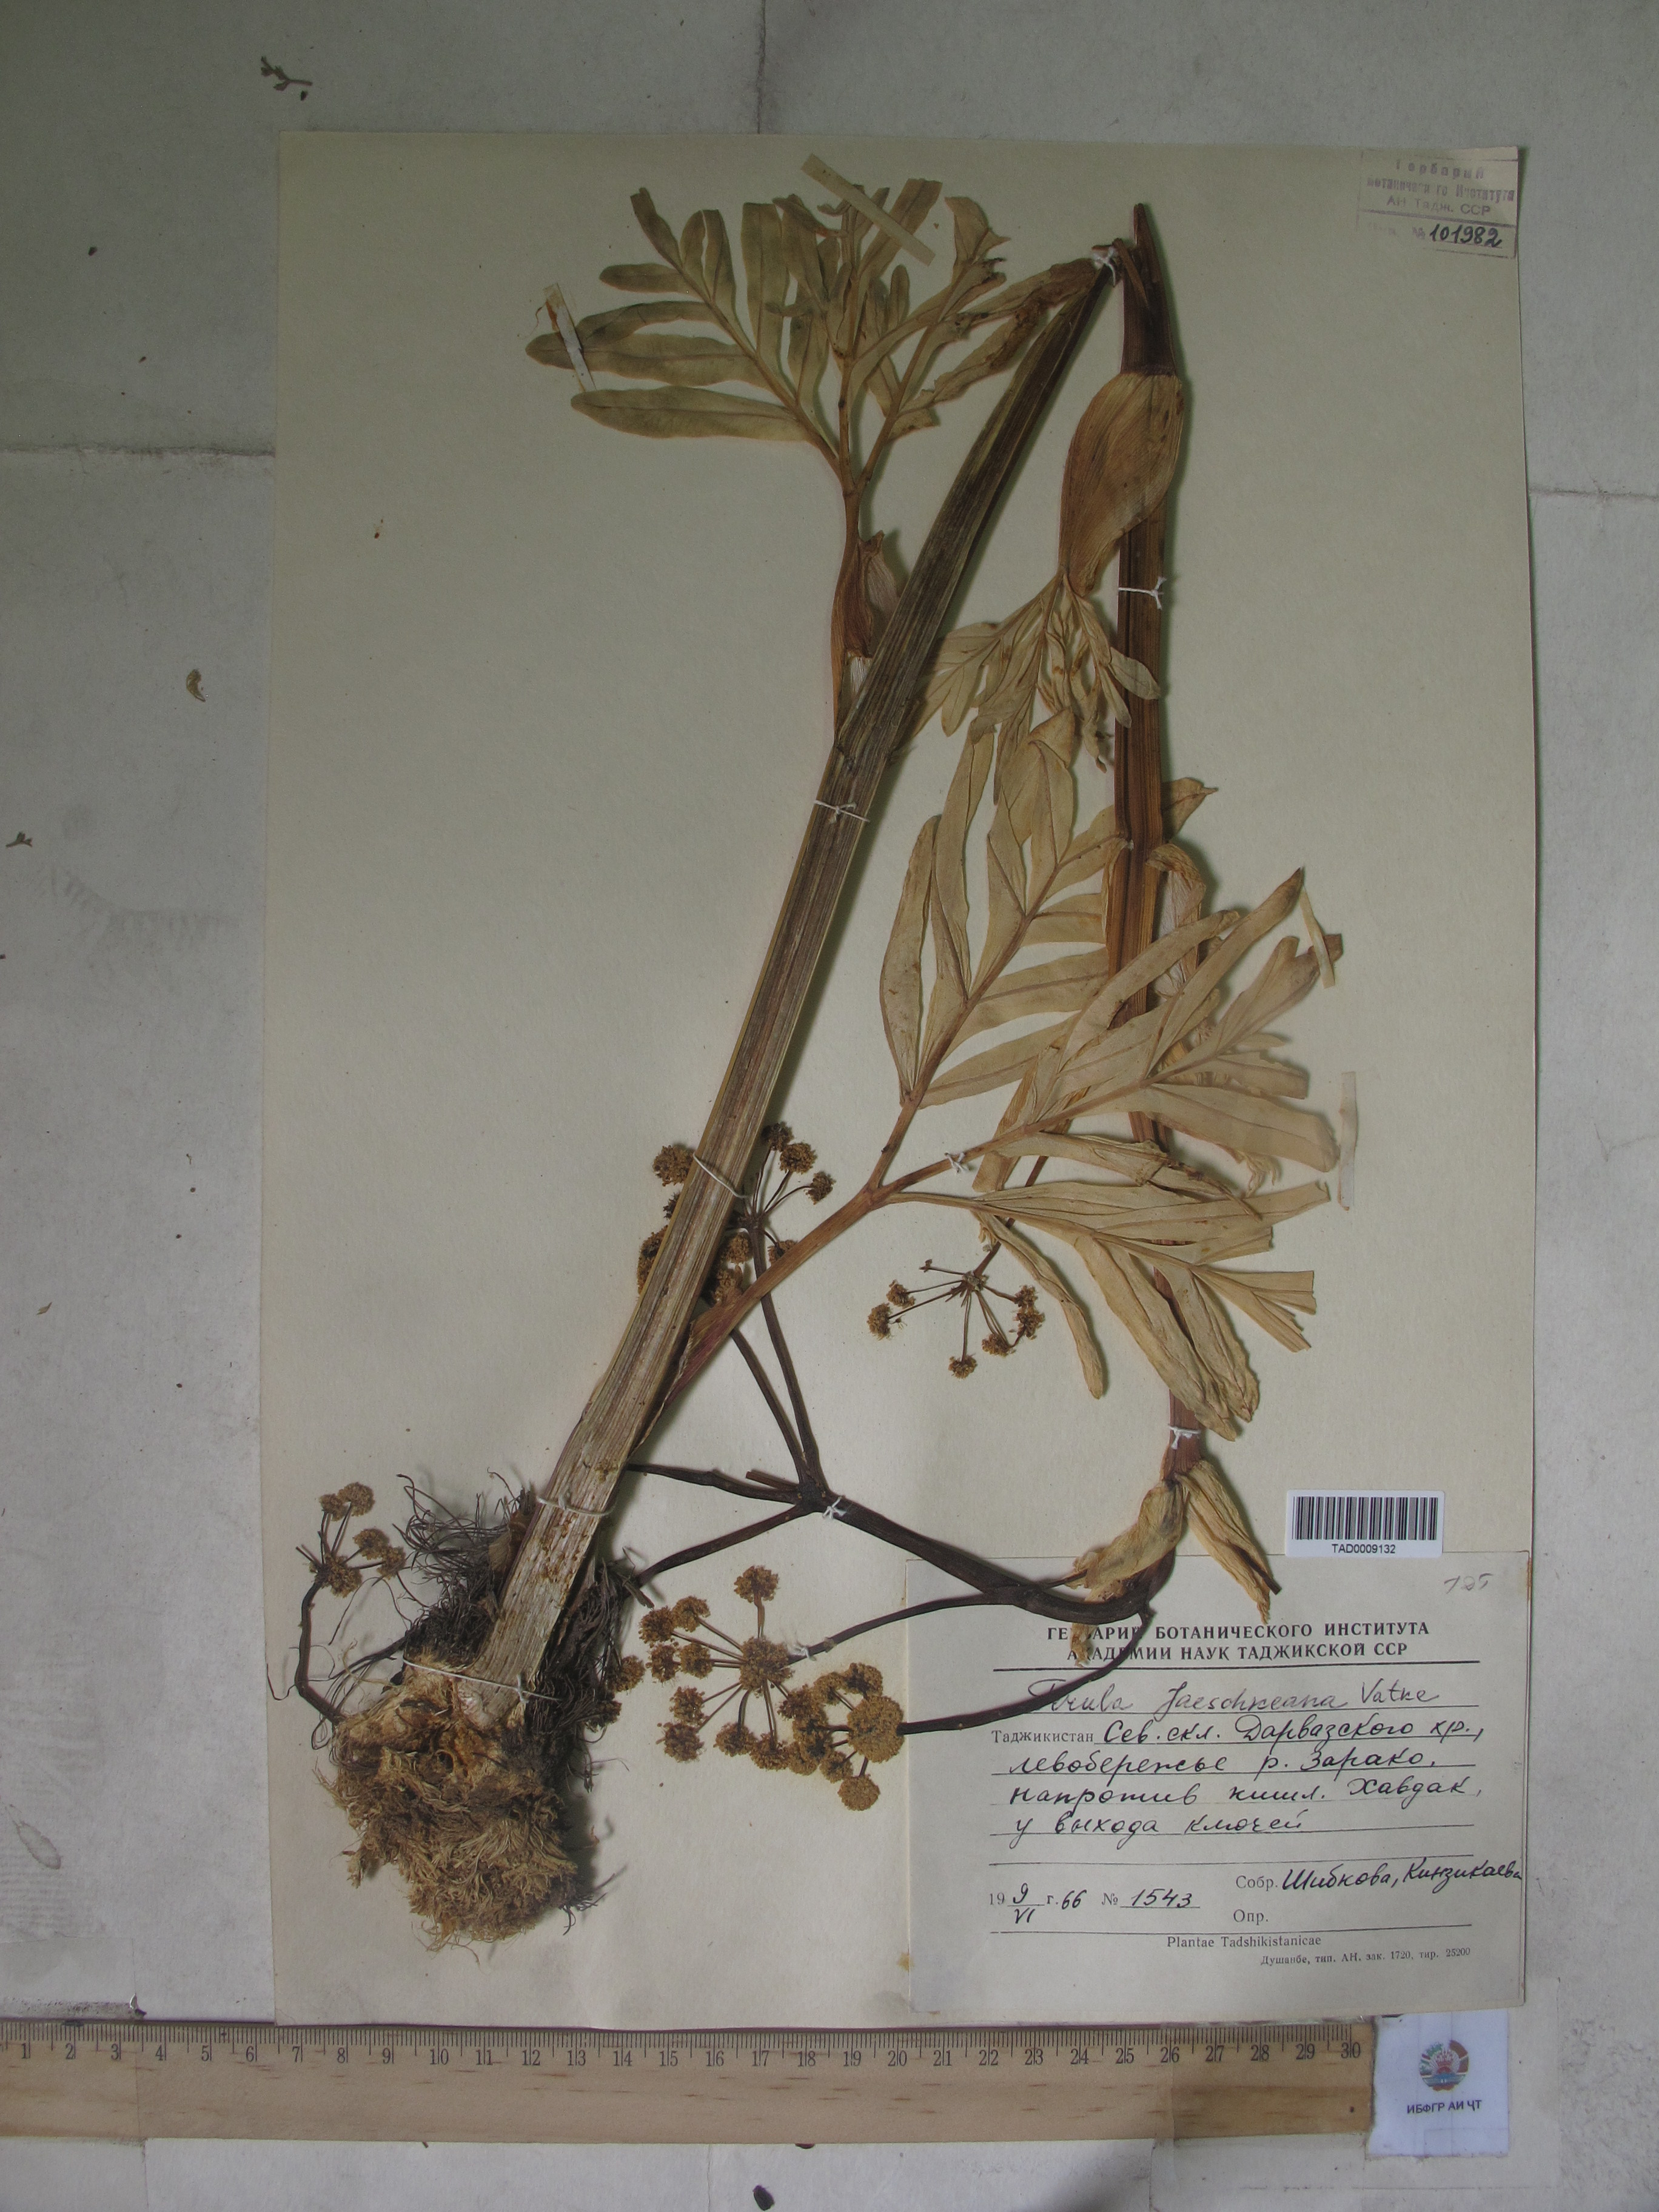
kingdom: Plantae
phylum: Tracheophyta
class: Magnoliopsida
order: Apiales
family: Apiaceae
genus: Ferula
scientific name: Ferula jaeschkeana
